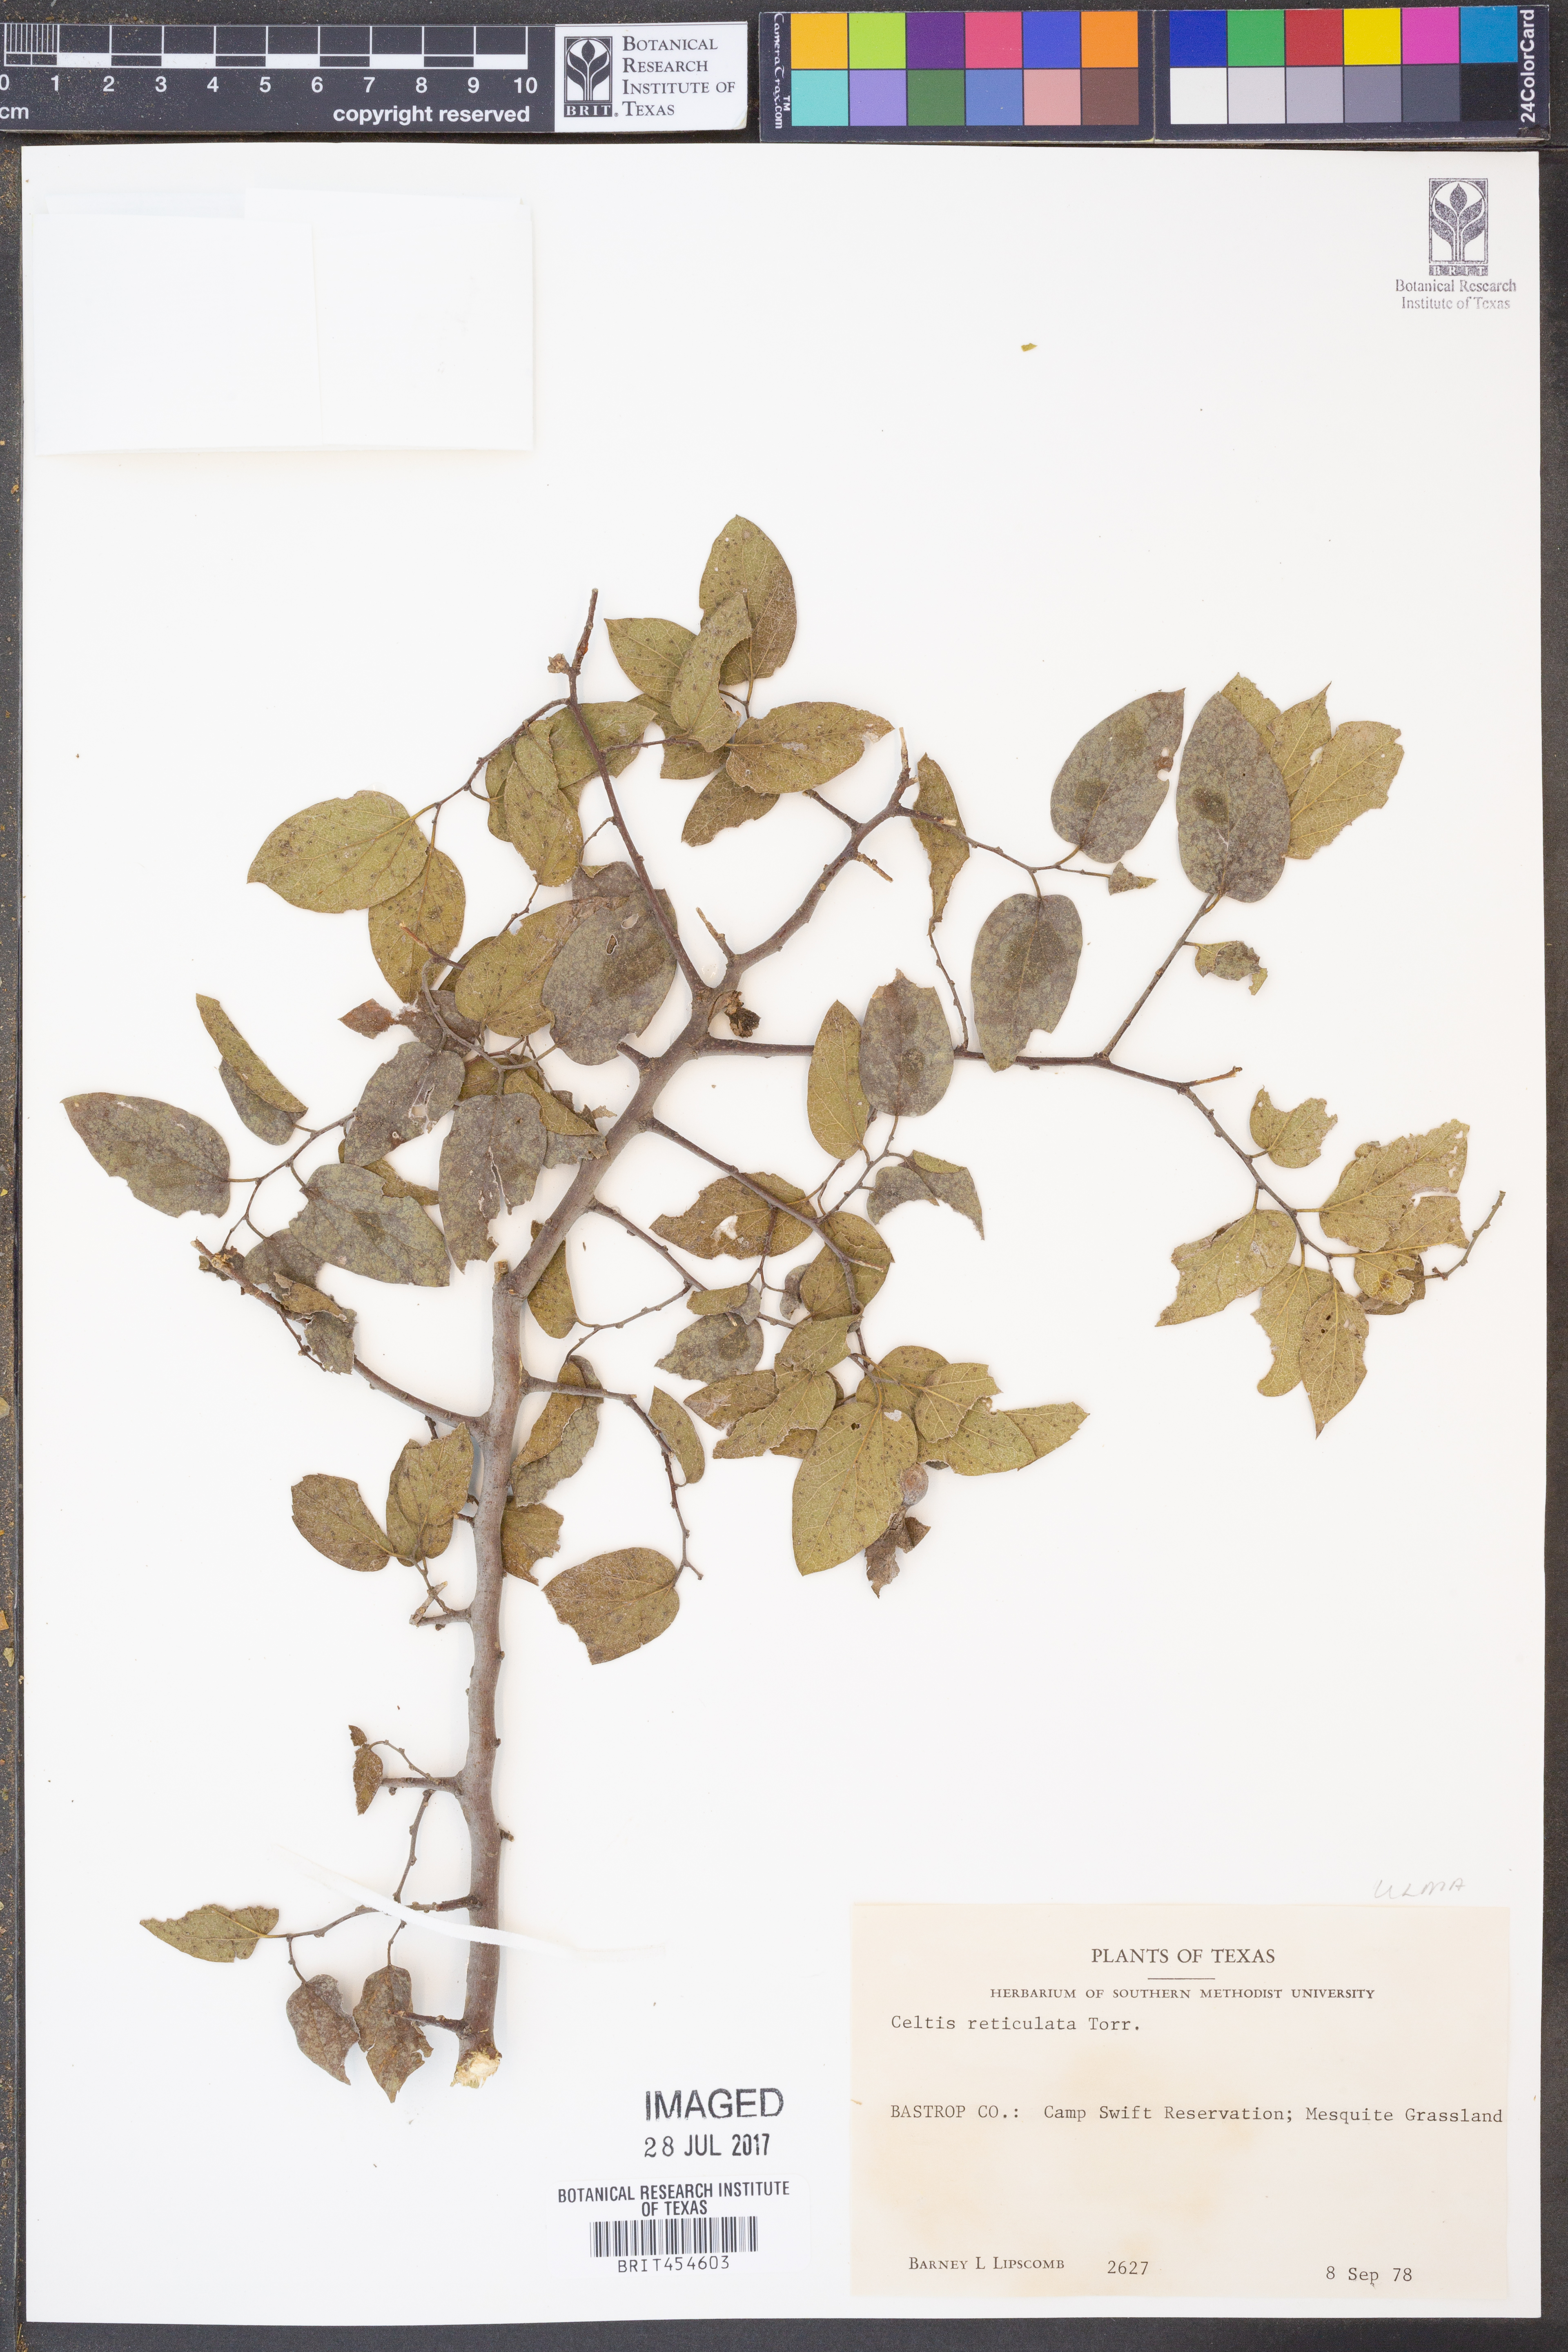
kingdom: Plantae
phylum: Tracheophyta
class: Magnoliopsida
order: Rosales
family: Cannabaceae
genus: Celtis
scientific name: Celtis reticulata
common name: Netleaf hackberry
